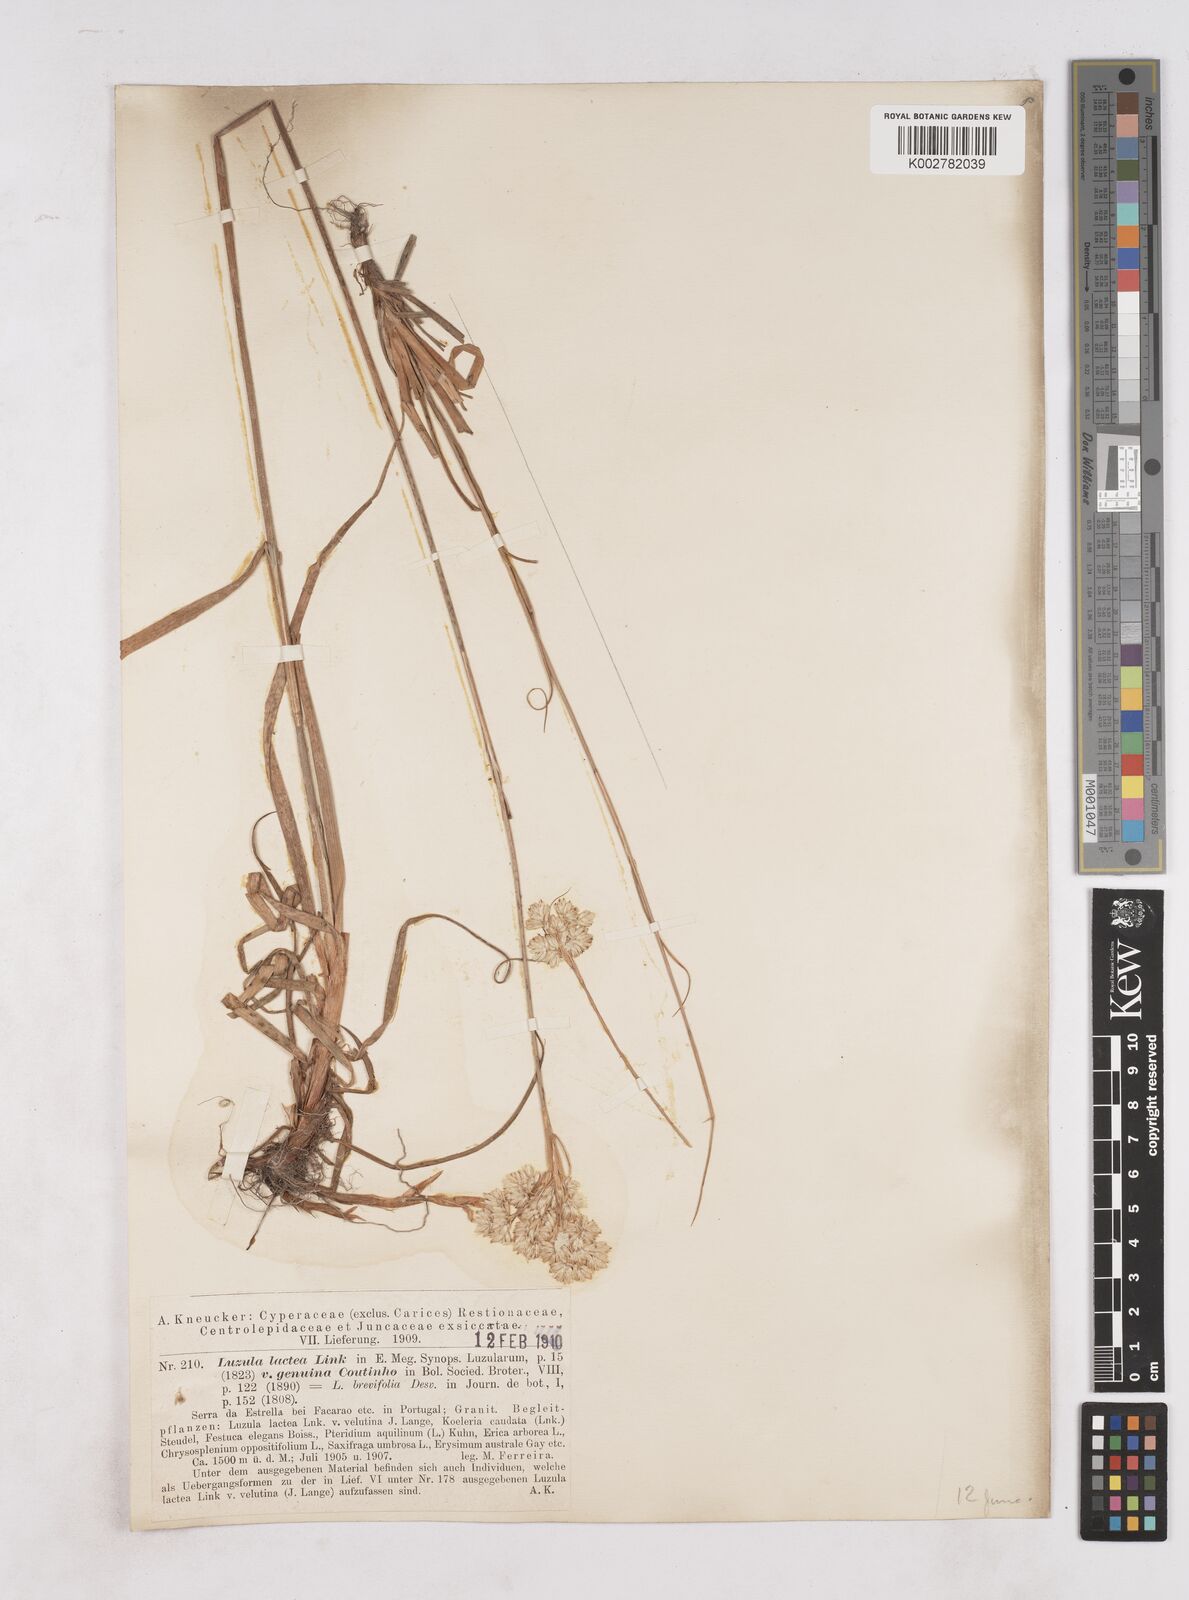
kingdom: Plantae
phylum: Tracheophyta
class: Liliopsida
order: Poales
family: Juncaceae
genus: Luzula
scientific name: Luzula lactea
